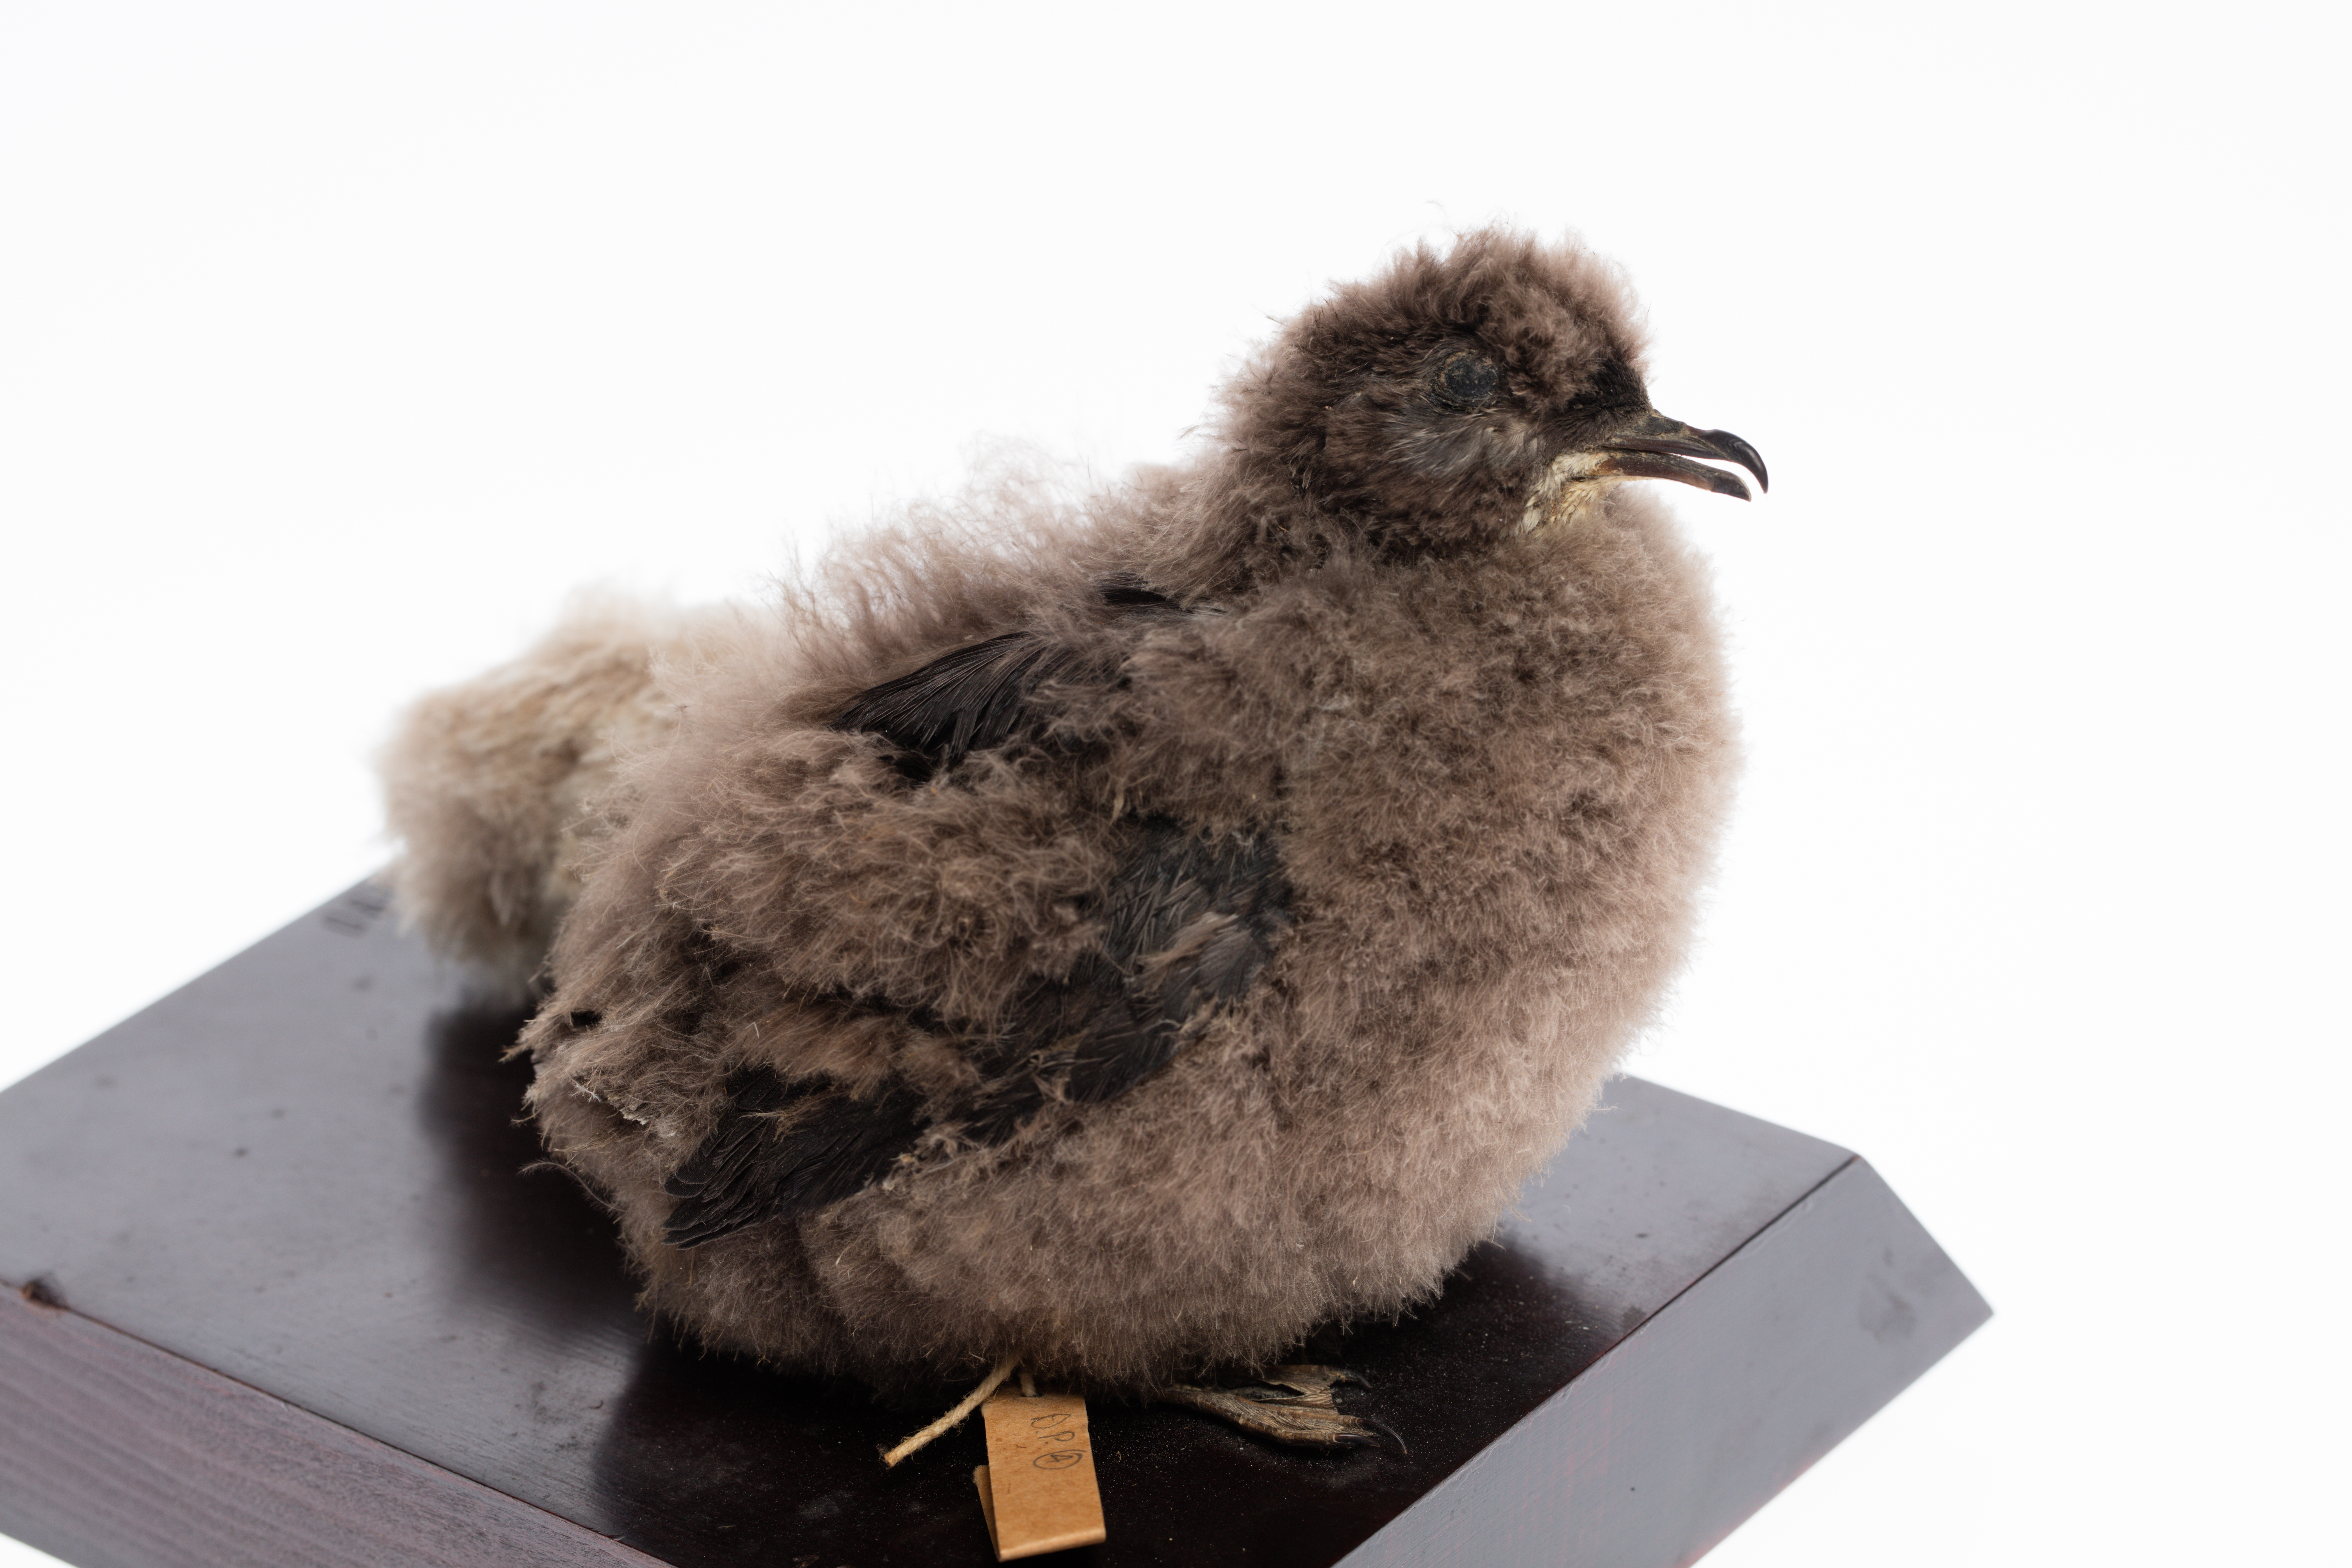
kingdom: Animalia
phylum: Chordata
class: Aves
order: Procellariiformes
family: Pelecanoididae
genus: Pelecanoides
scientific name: Pelecanoides urinatrix
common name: Common diving-petrel
